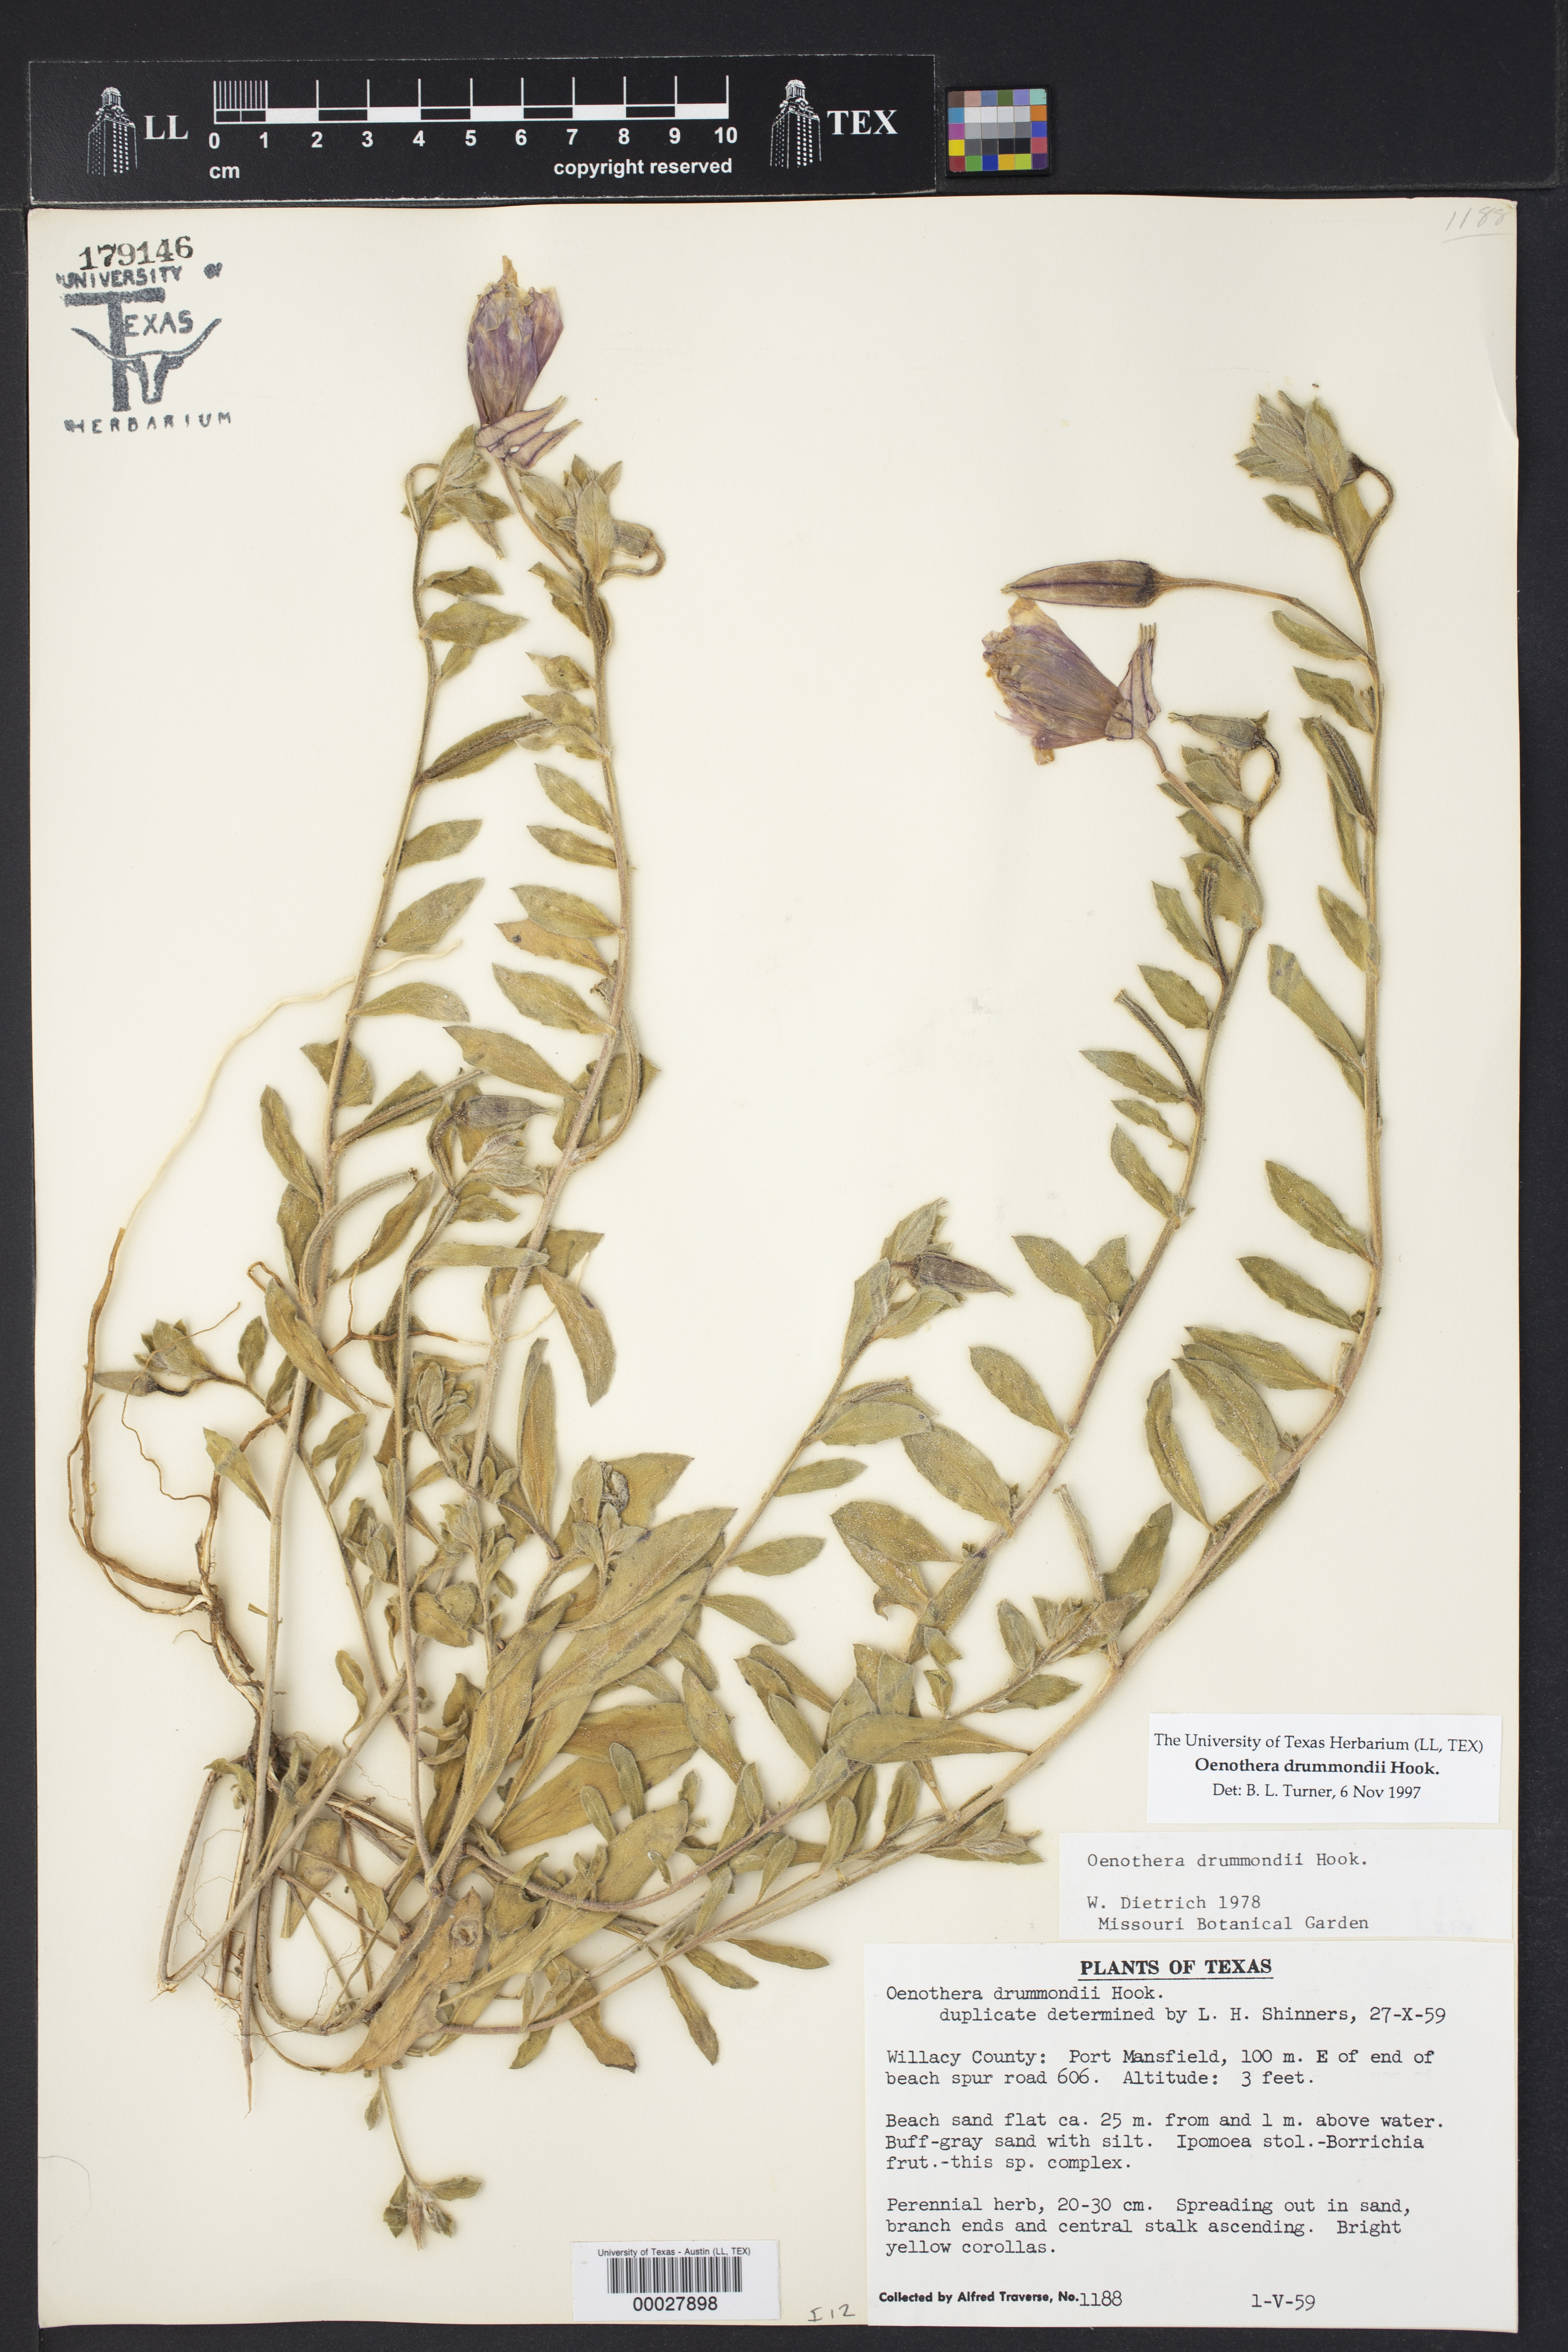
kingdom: Plantae
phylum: Tracheophyta
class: Magnoliopsida
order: Myrtales
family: Onagraceae
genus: Oenothera
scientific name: Oenothera drummondii
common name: Beach evening-primrose
